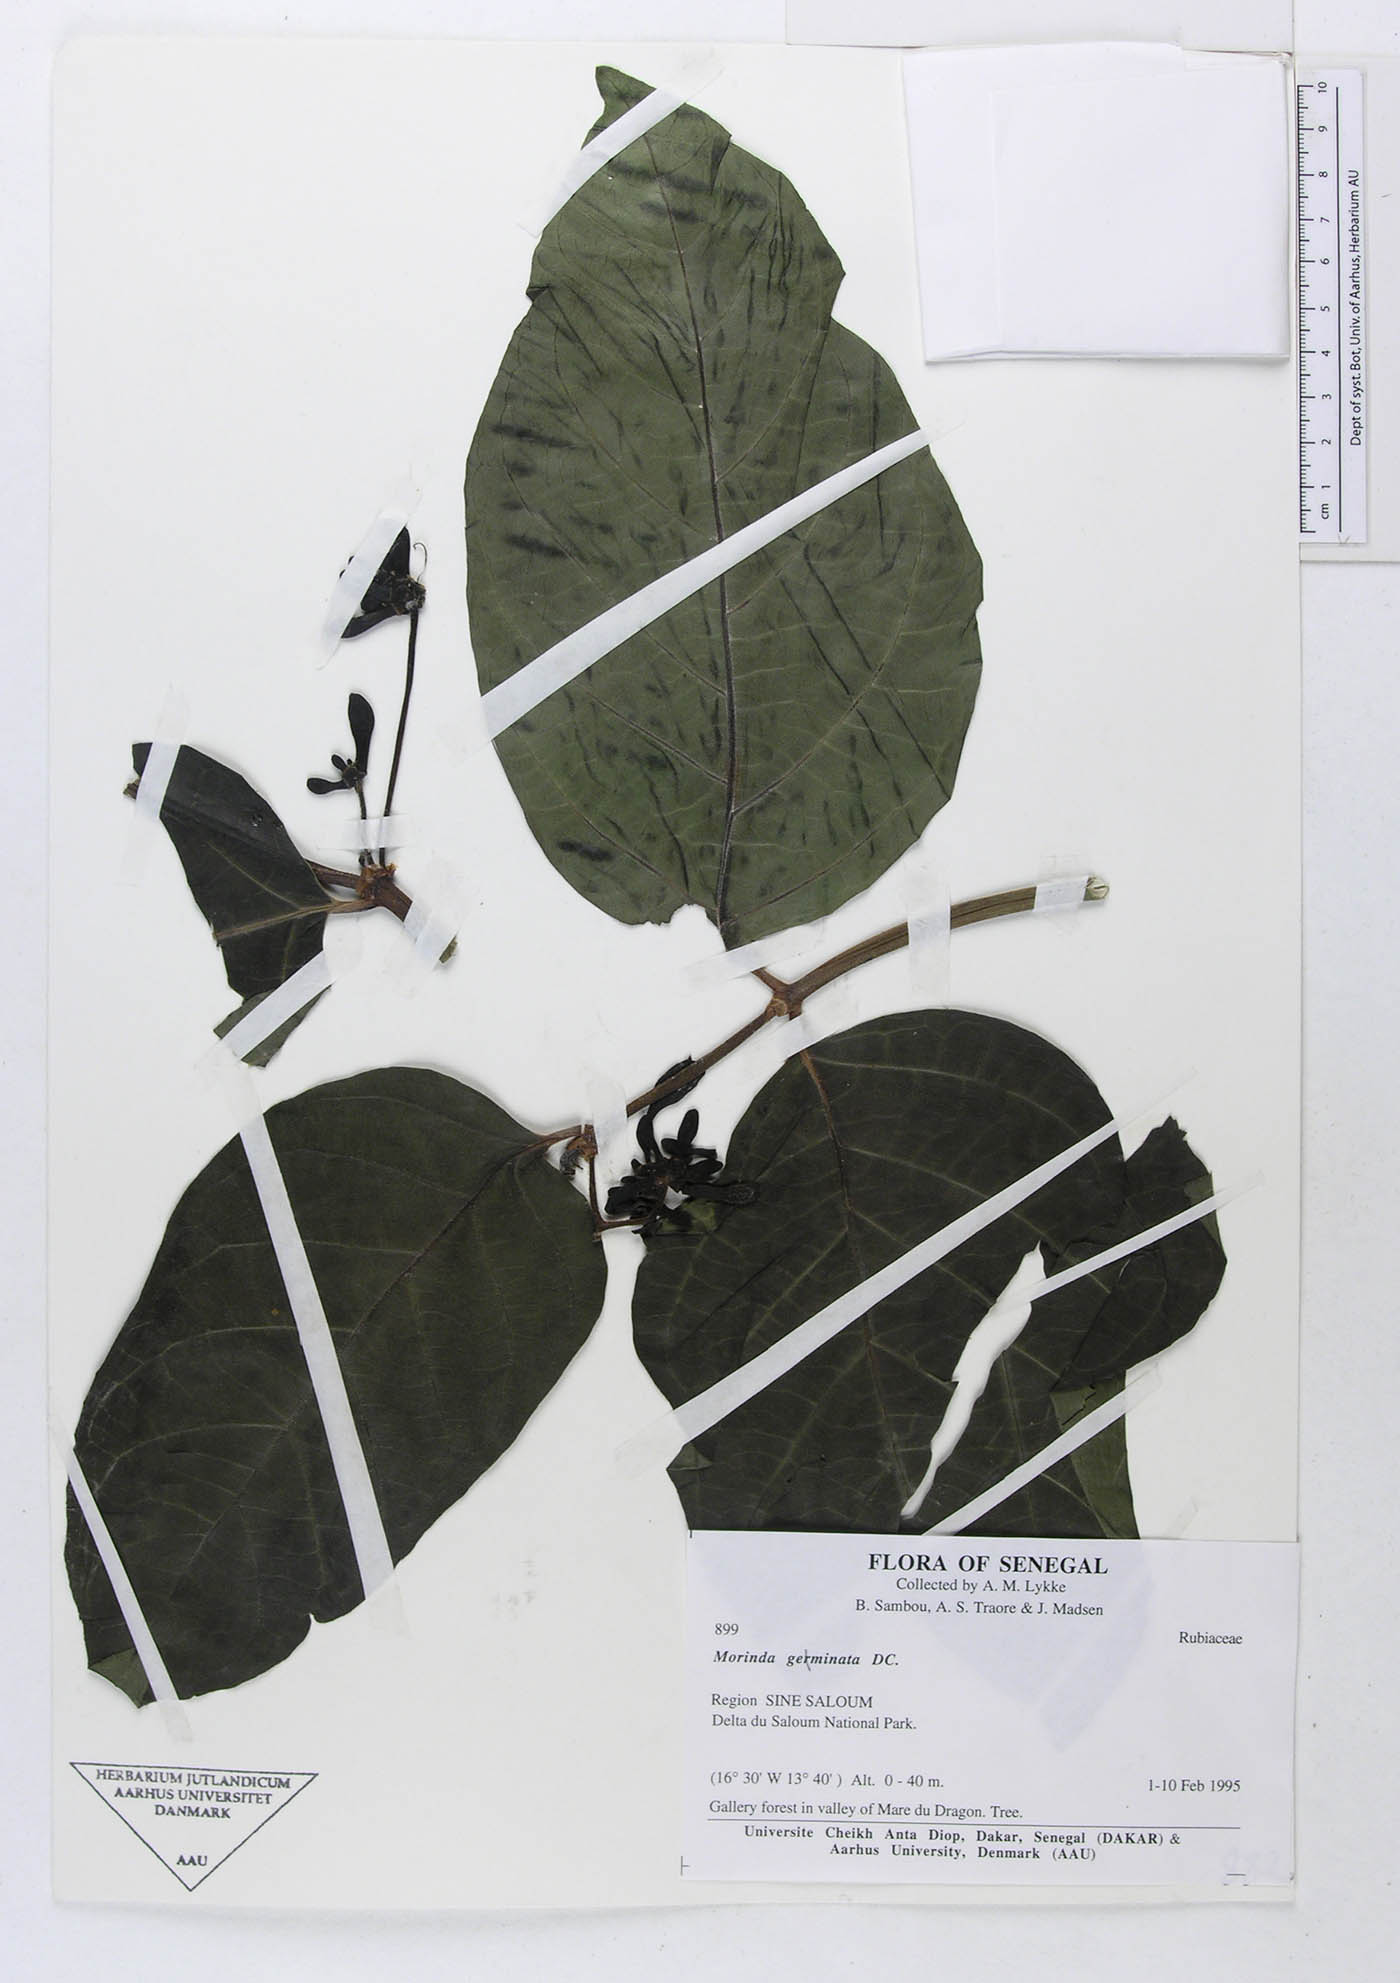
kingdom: Plantae
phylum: Tracheophyta
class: Magnoliopsida
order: Gentianales
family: Rubiaceae
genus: Morinda
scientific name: Morinda chrysorhiza
